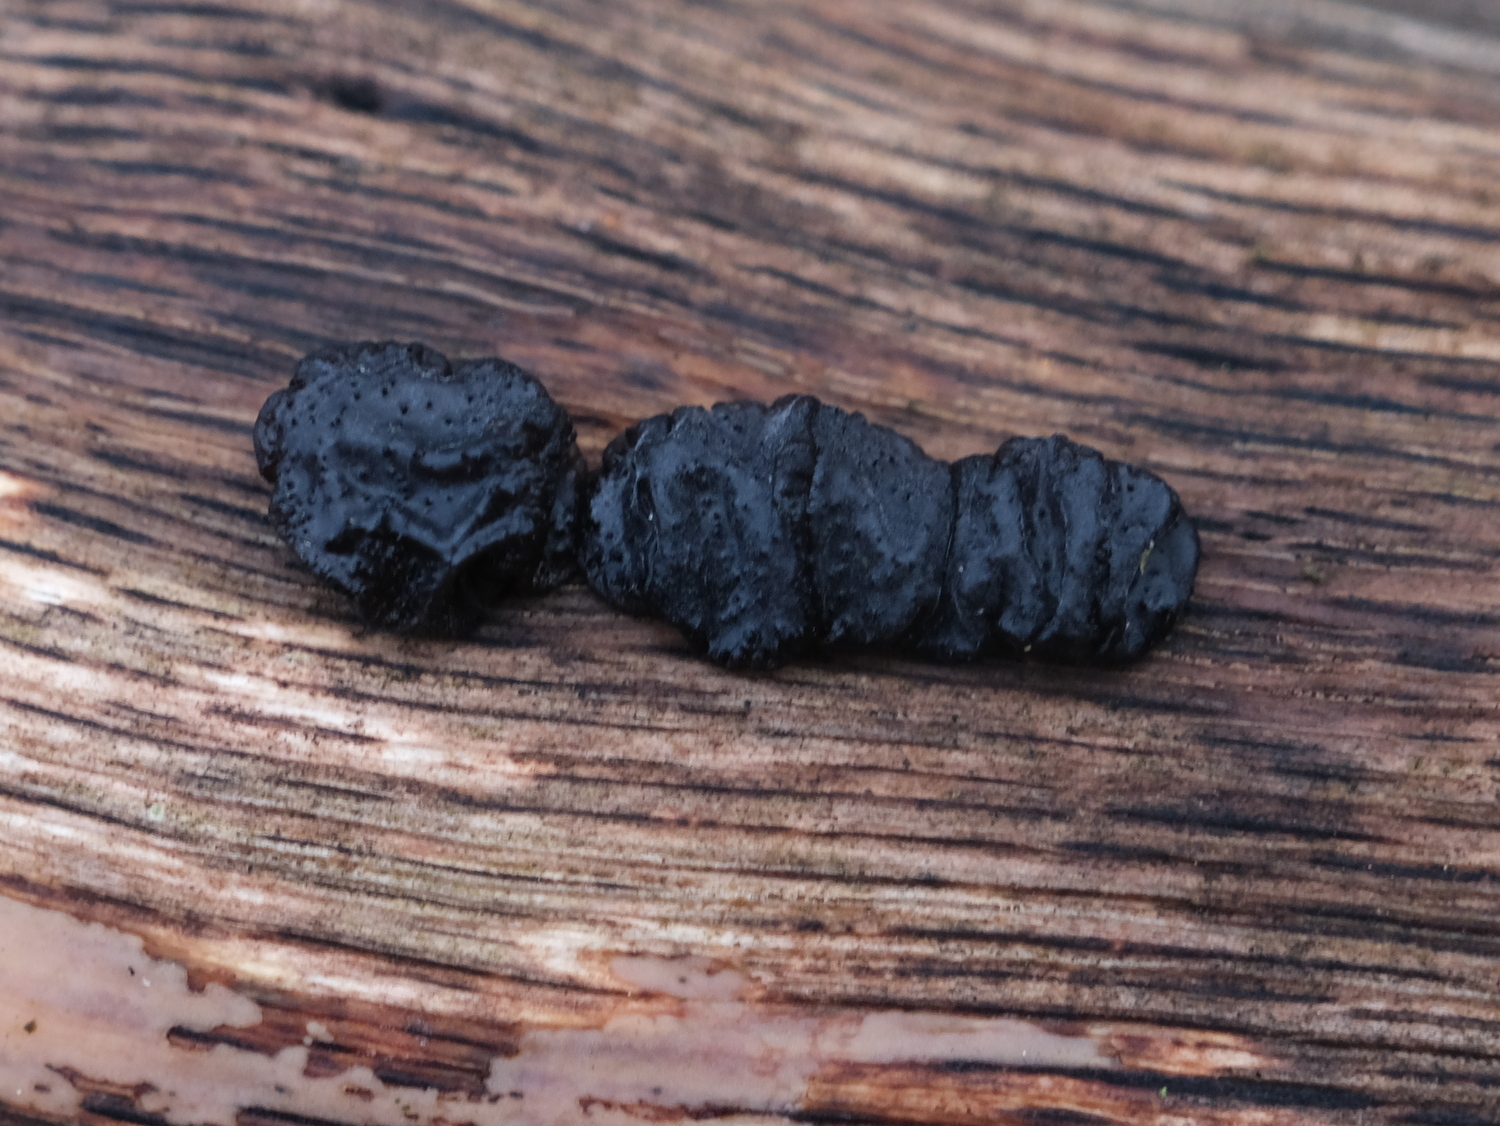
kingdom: Fungi
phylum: Basidiomycota
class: Agaricomycetes
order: Auriculariales
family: Auriculariaceae
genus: Exidia
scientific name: Exidia glandulosa
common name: ege-bævretop
